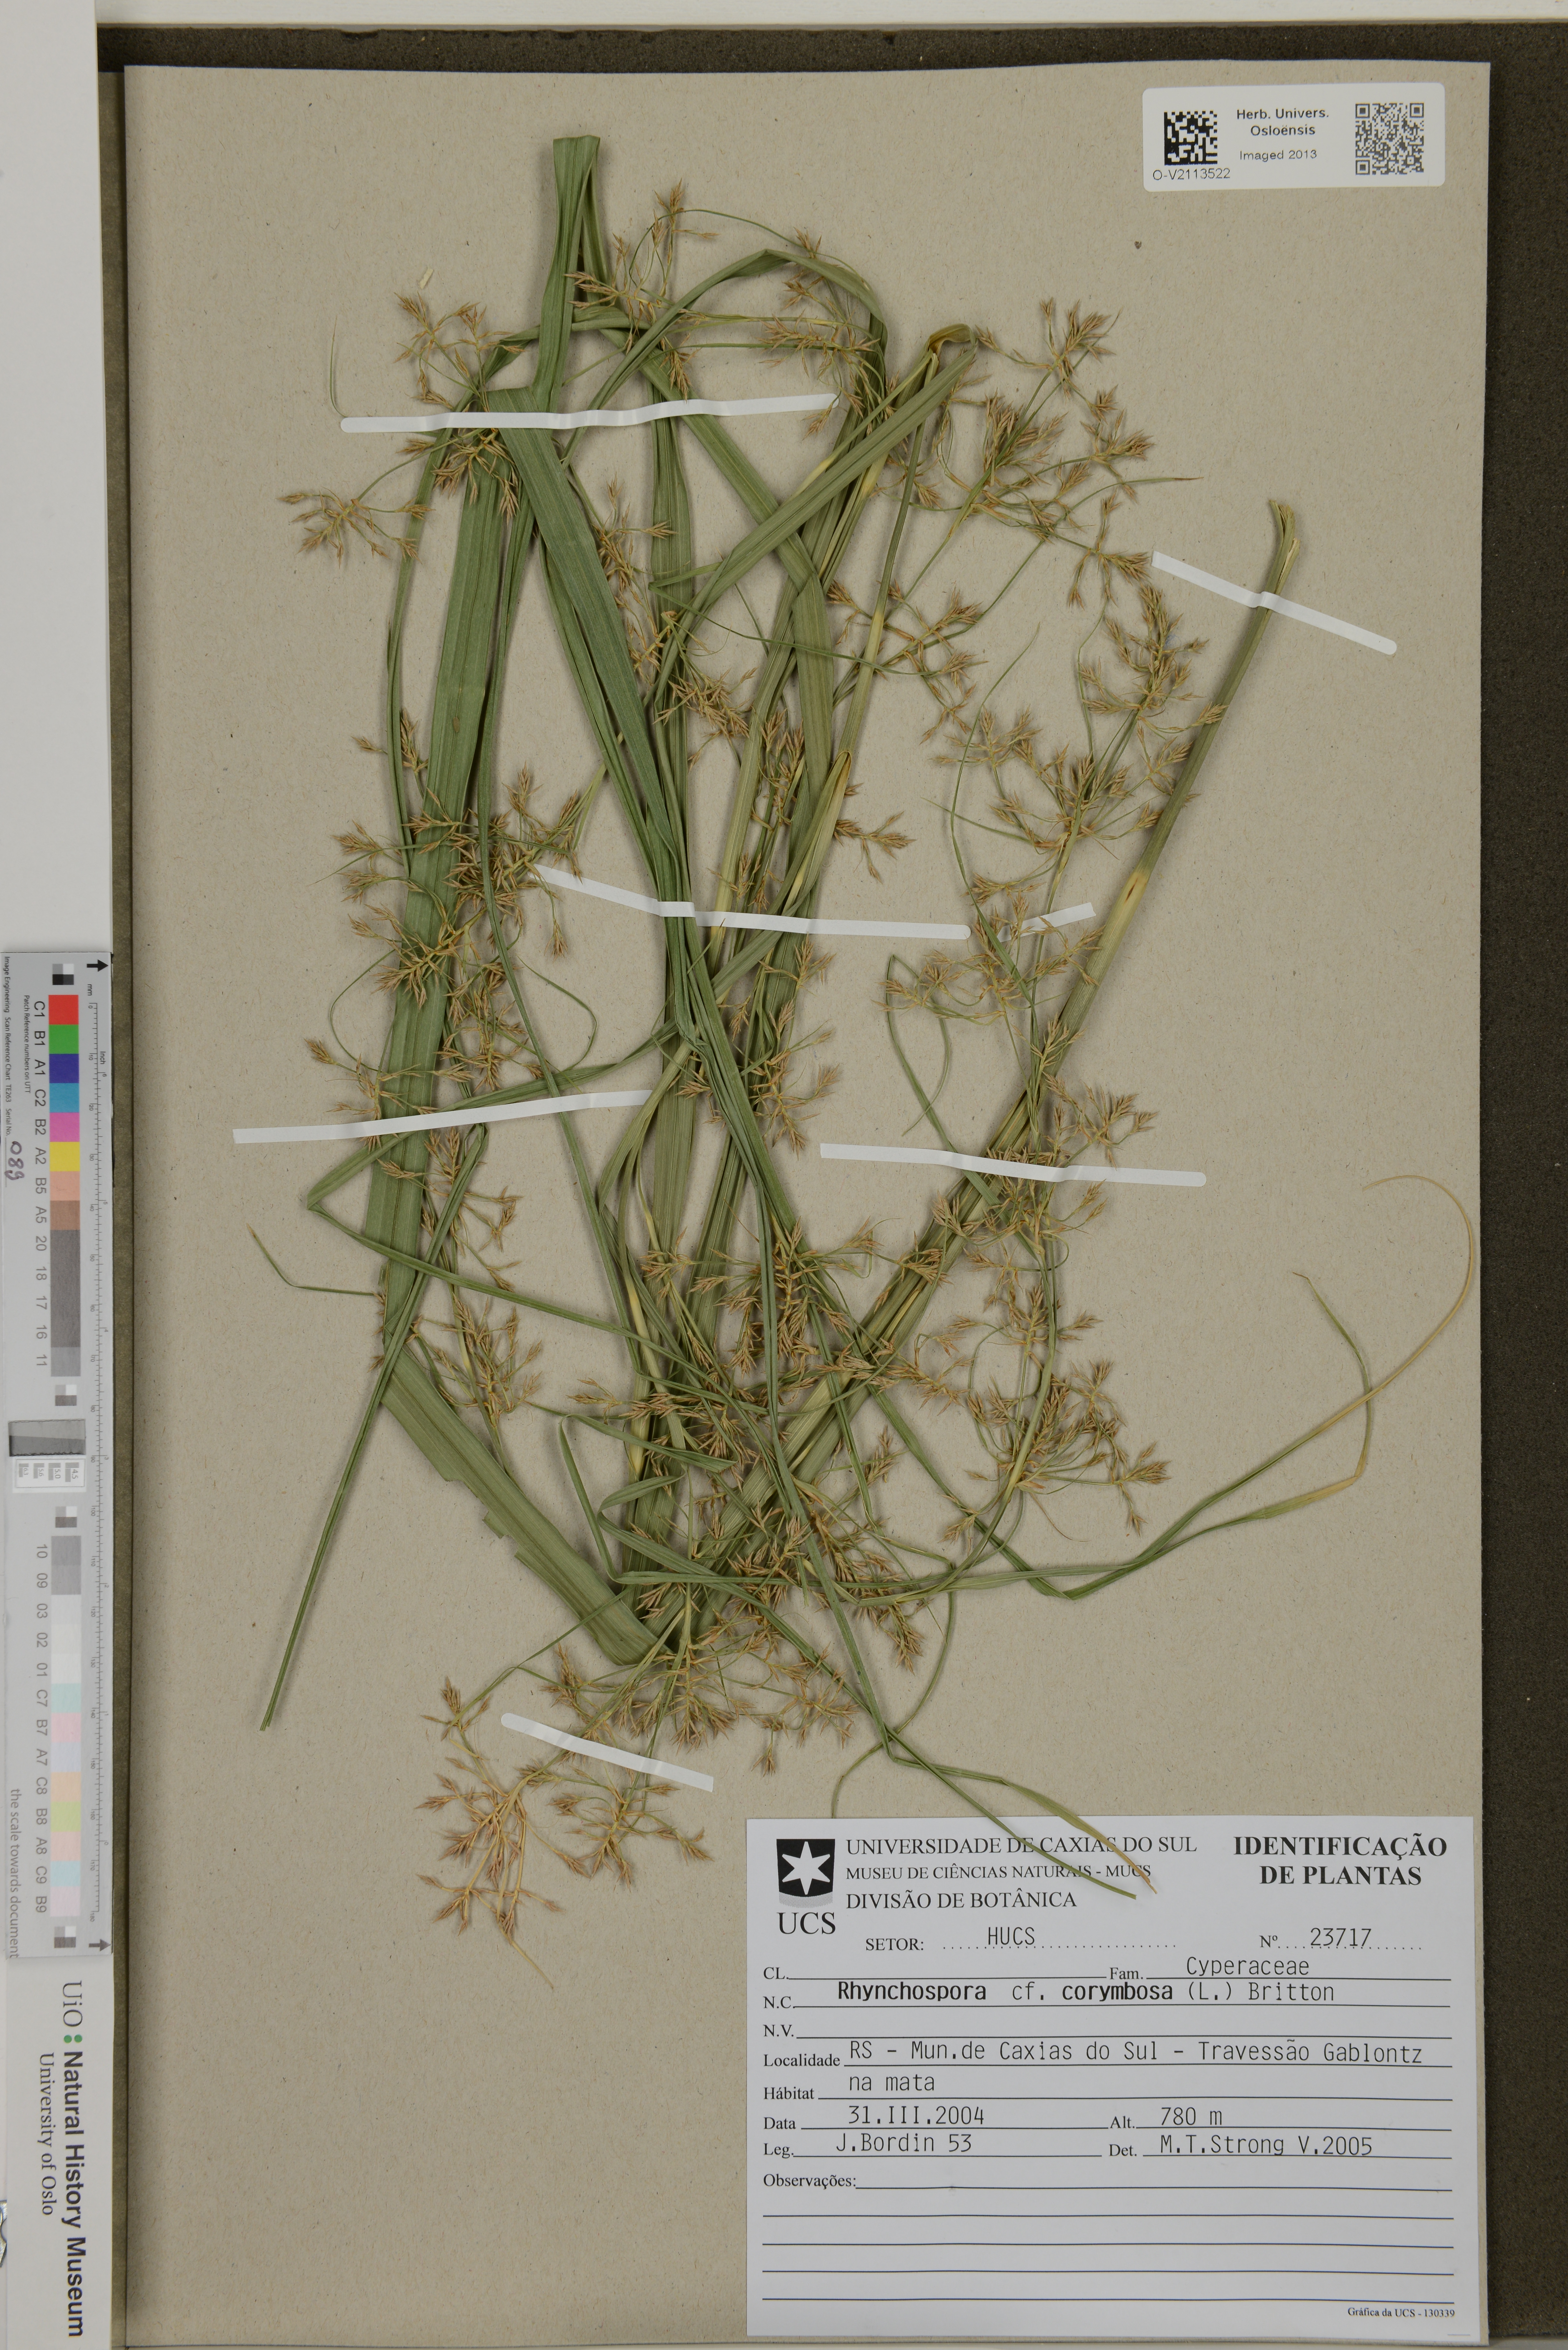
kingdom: Plantae
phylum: Tracheophyta
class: Liliopsida
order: Poales
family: Cyperaceae
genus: Rhynchospora
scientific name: Rhynchospora corymbosa
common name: Golden beak sedge
